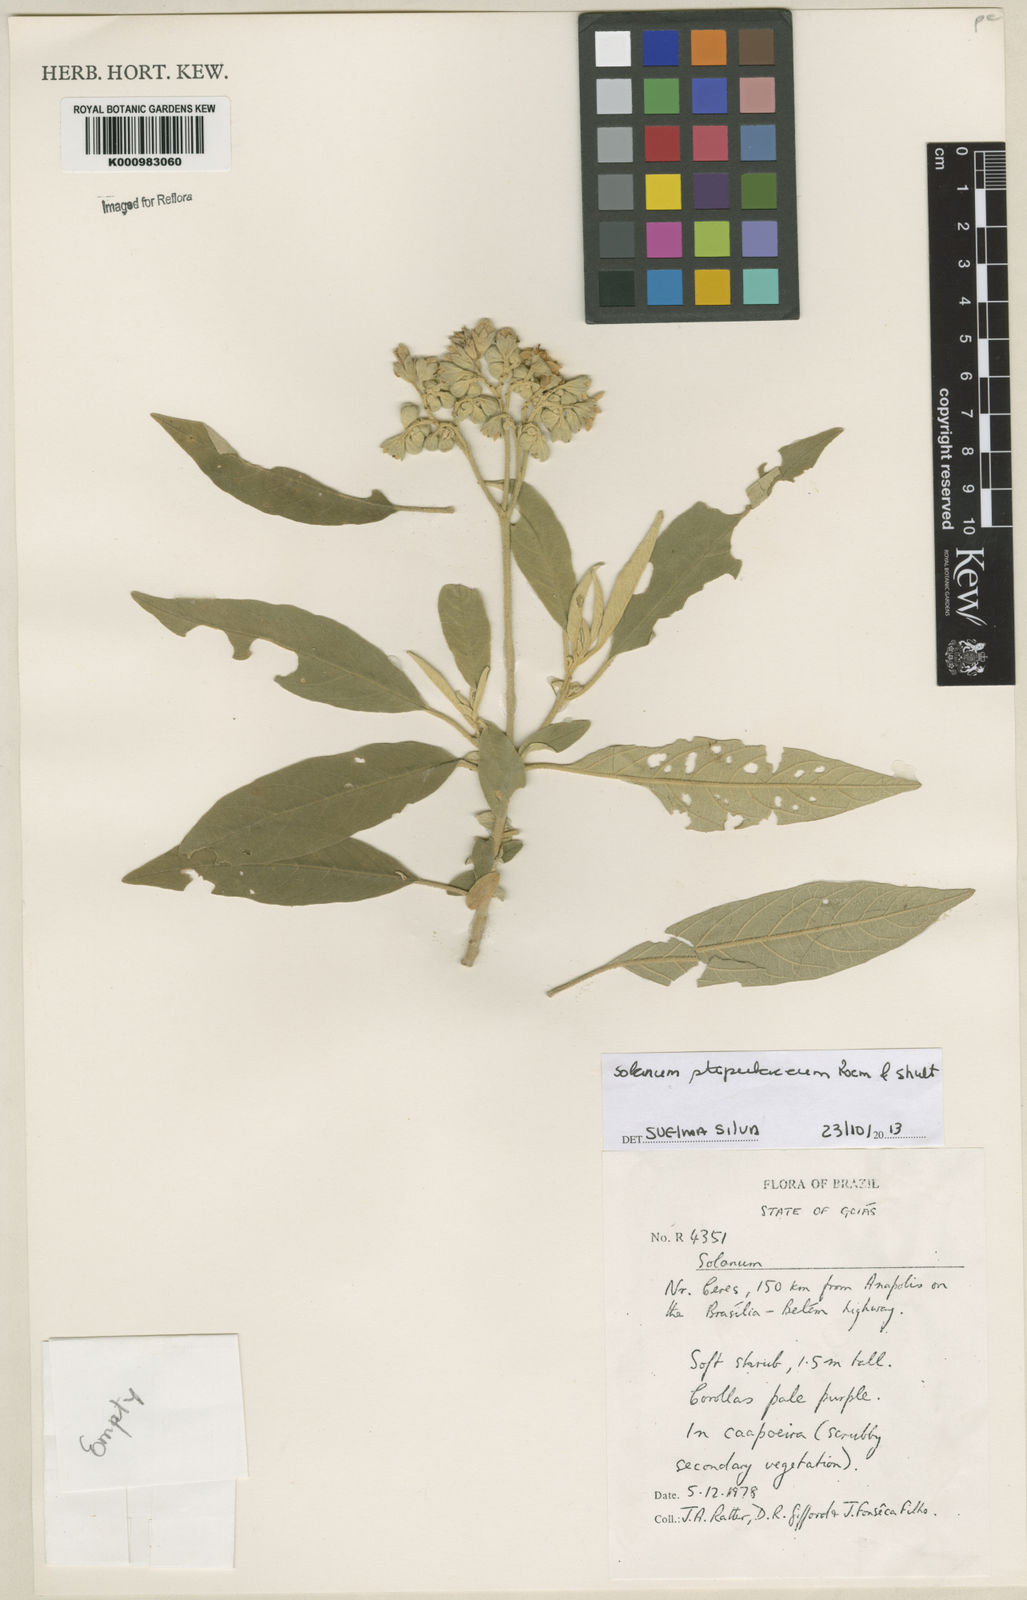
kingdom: Plantae
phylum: Tracheophyta
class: Magnoliopsida
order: Solanales
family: Solanaceae
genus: Solanum
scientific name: Solanum stipulaceum
